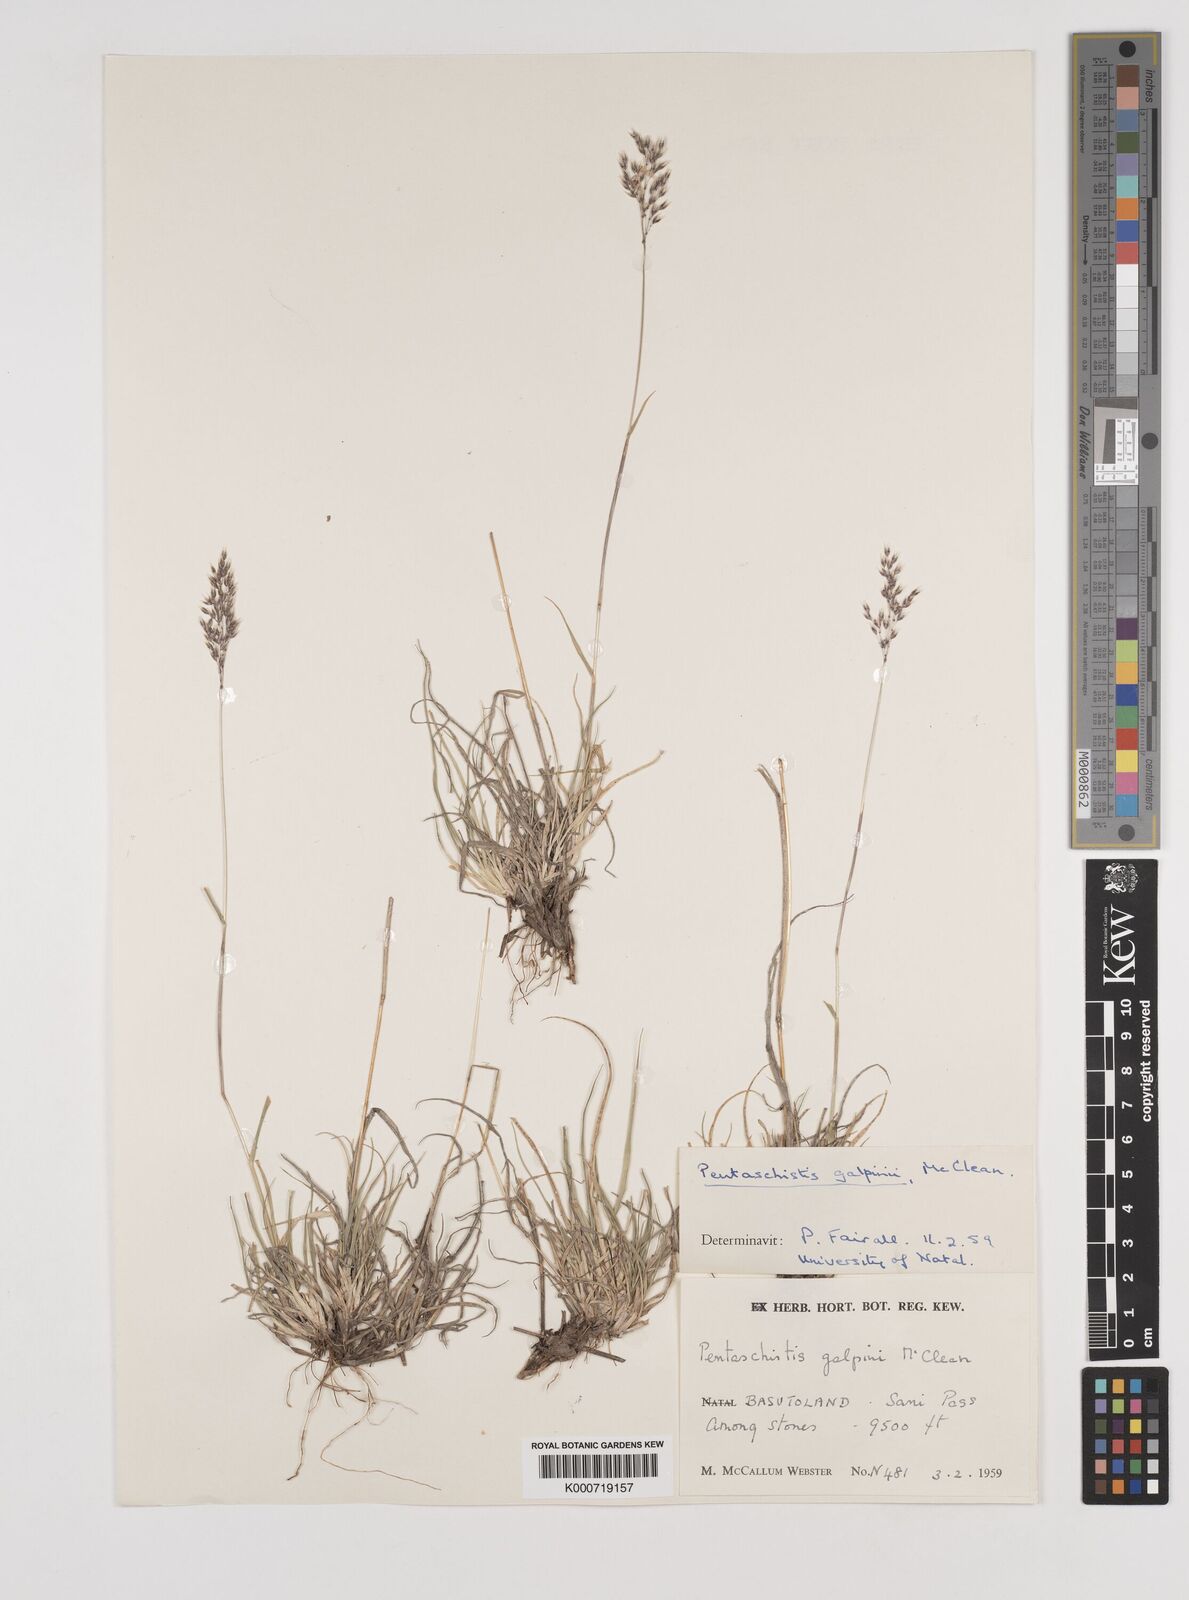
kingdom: Plantae
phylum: Tracheophyta
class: Liliopsida
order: Poales
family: Poaceae
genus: Pentameris
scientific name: Pentameris galpinii
